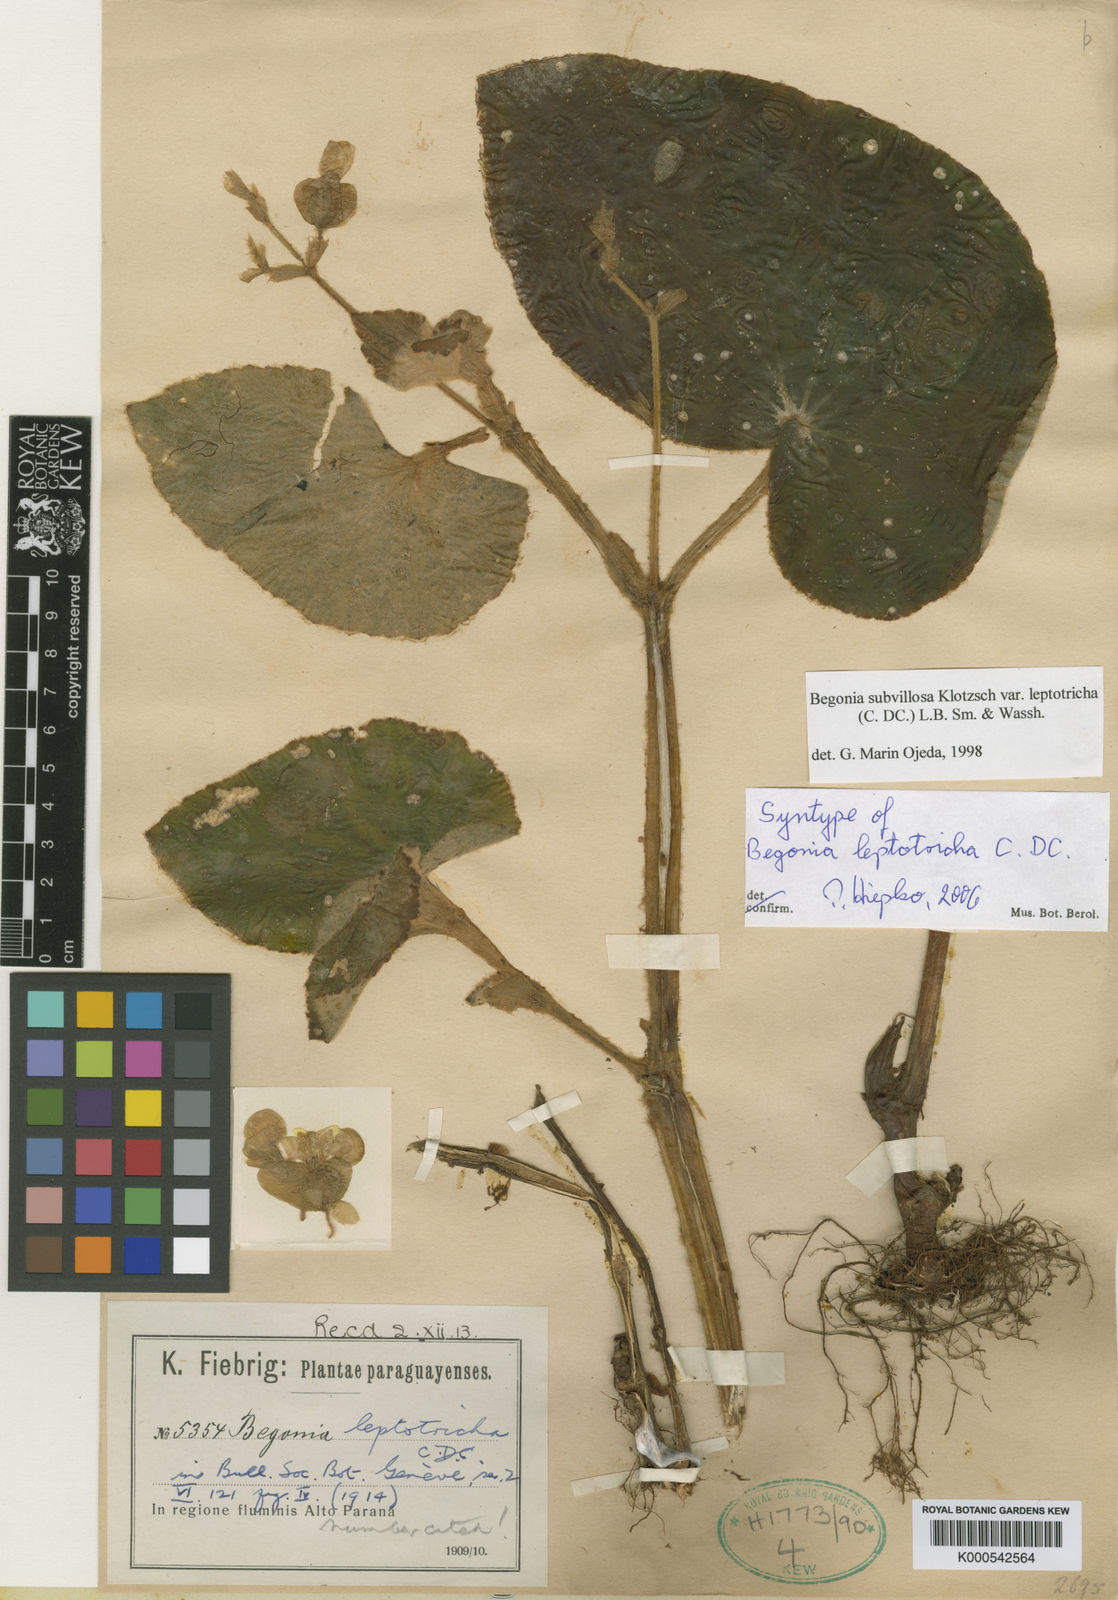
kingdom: Plantae
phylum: Tracheophyta
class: Magnoliopsida
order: Cucurbitales
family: Begoniaceae
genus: Begonia
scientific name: Begonia subvillosa
